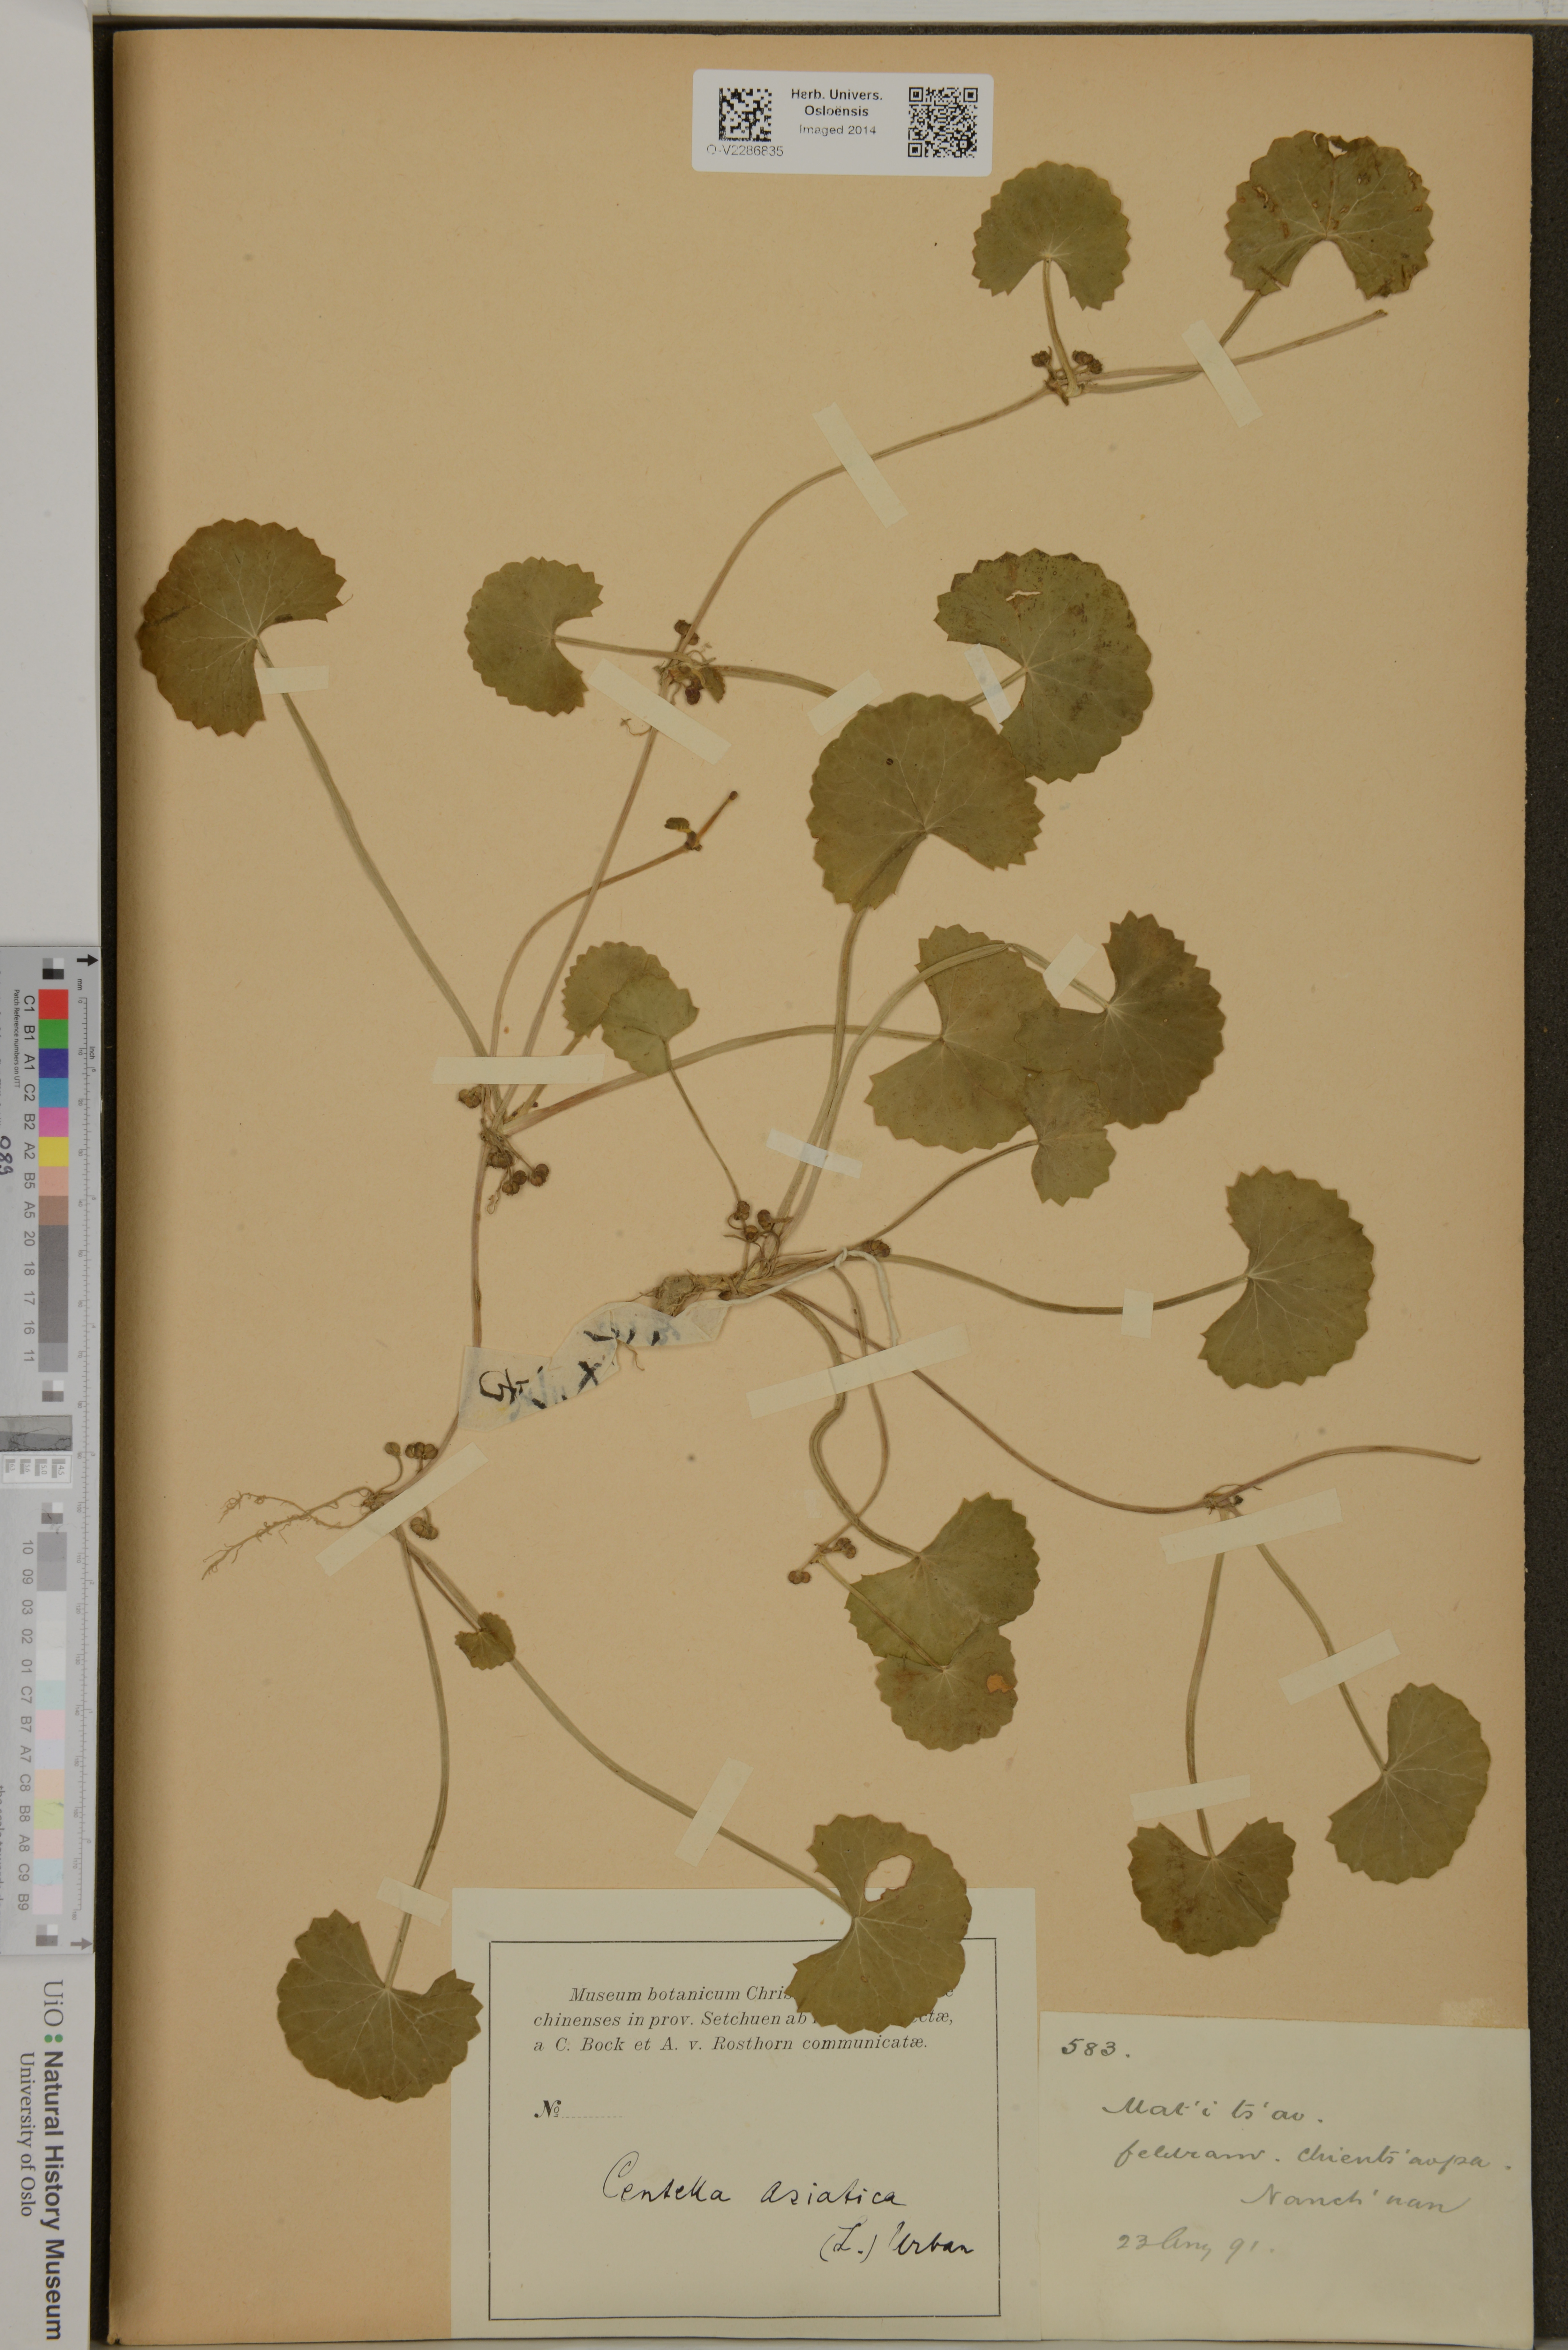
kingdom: Plantae
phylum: Tracheophyta
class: Magnoliopsida
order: Apiales
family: Apiaceae
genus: Centella
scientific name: Centella asiatica
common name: Spadeleaf
